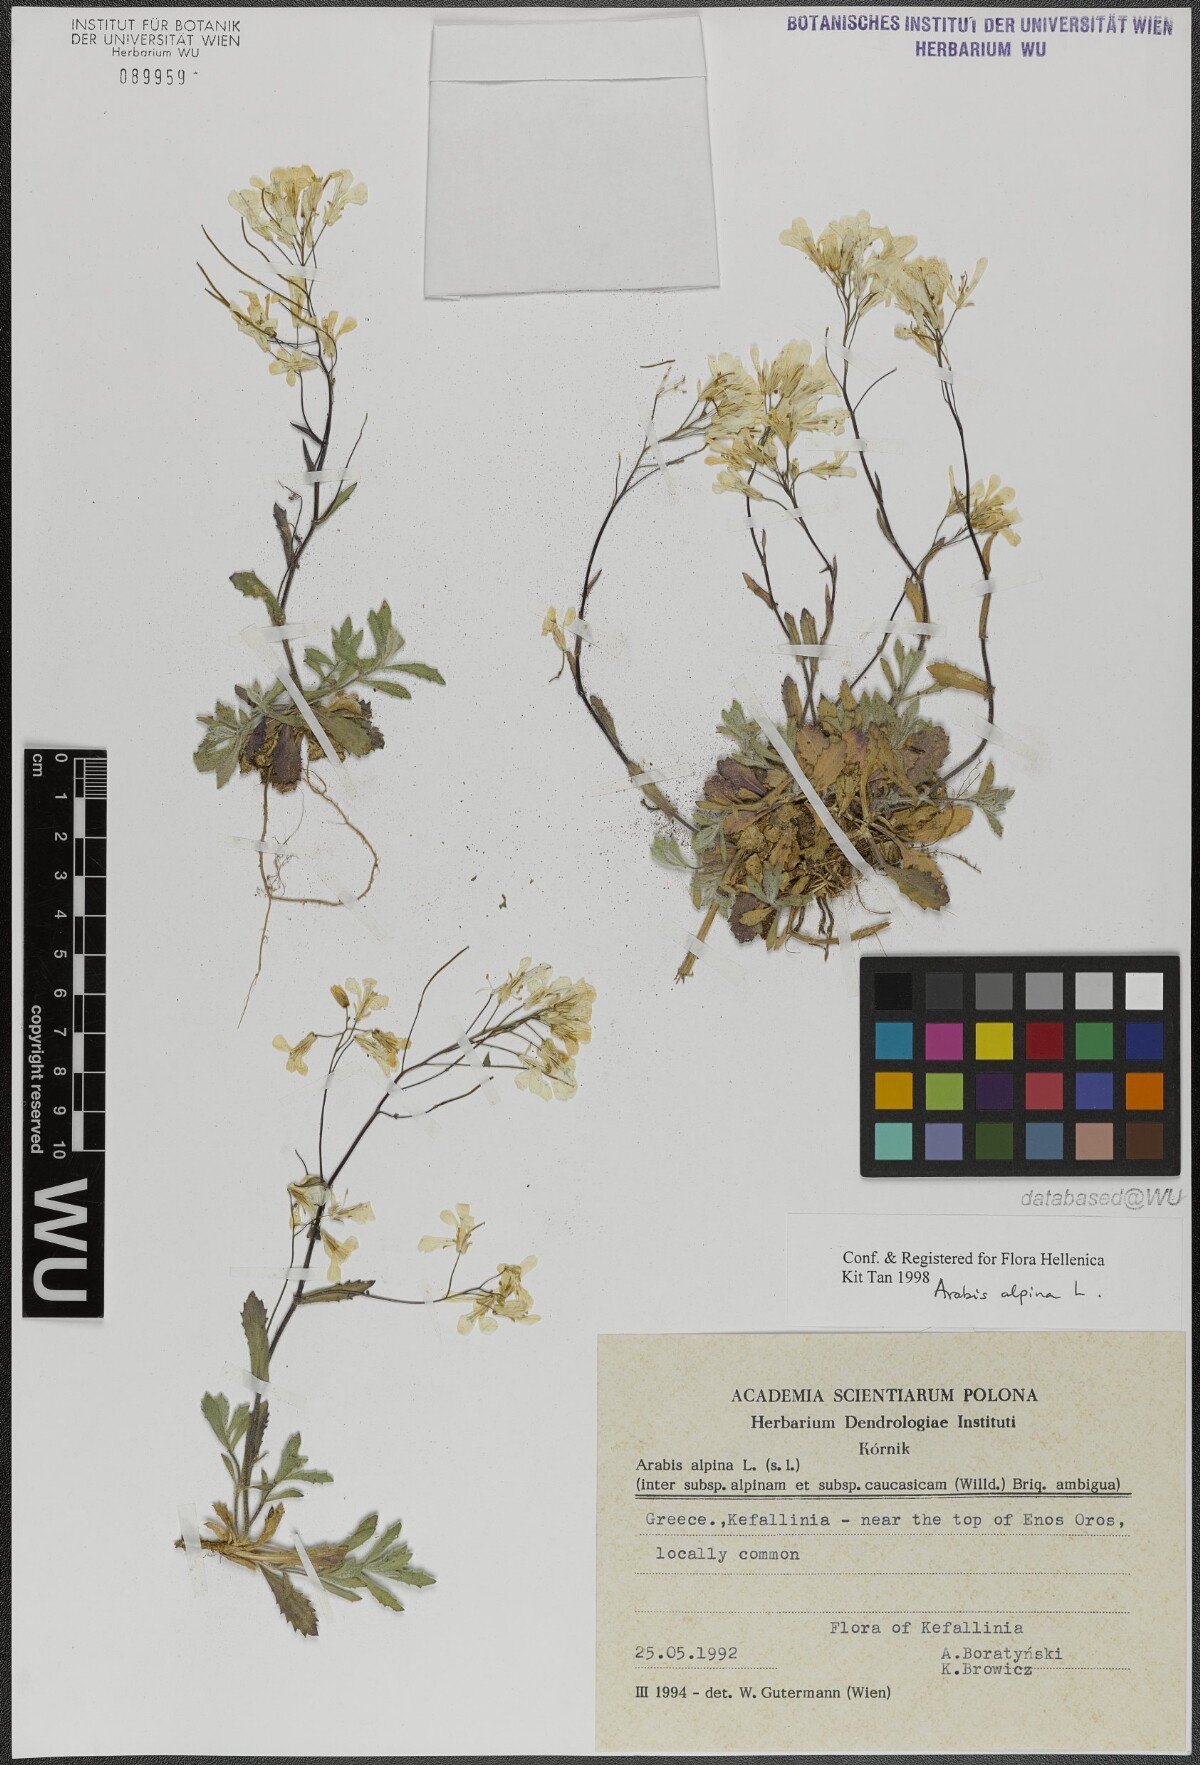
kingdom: Plantae
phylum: Tracheophyta
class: Magnoliopsida
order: Brassicales
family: Brassicaceae
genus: Arabis
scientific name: Arabis alpina
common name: Alpine rock-cress
